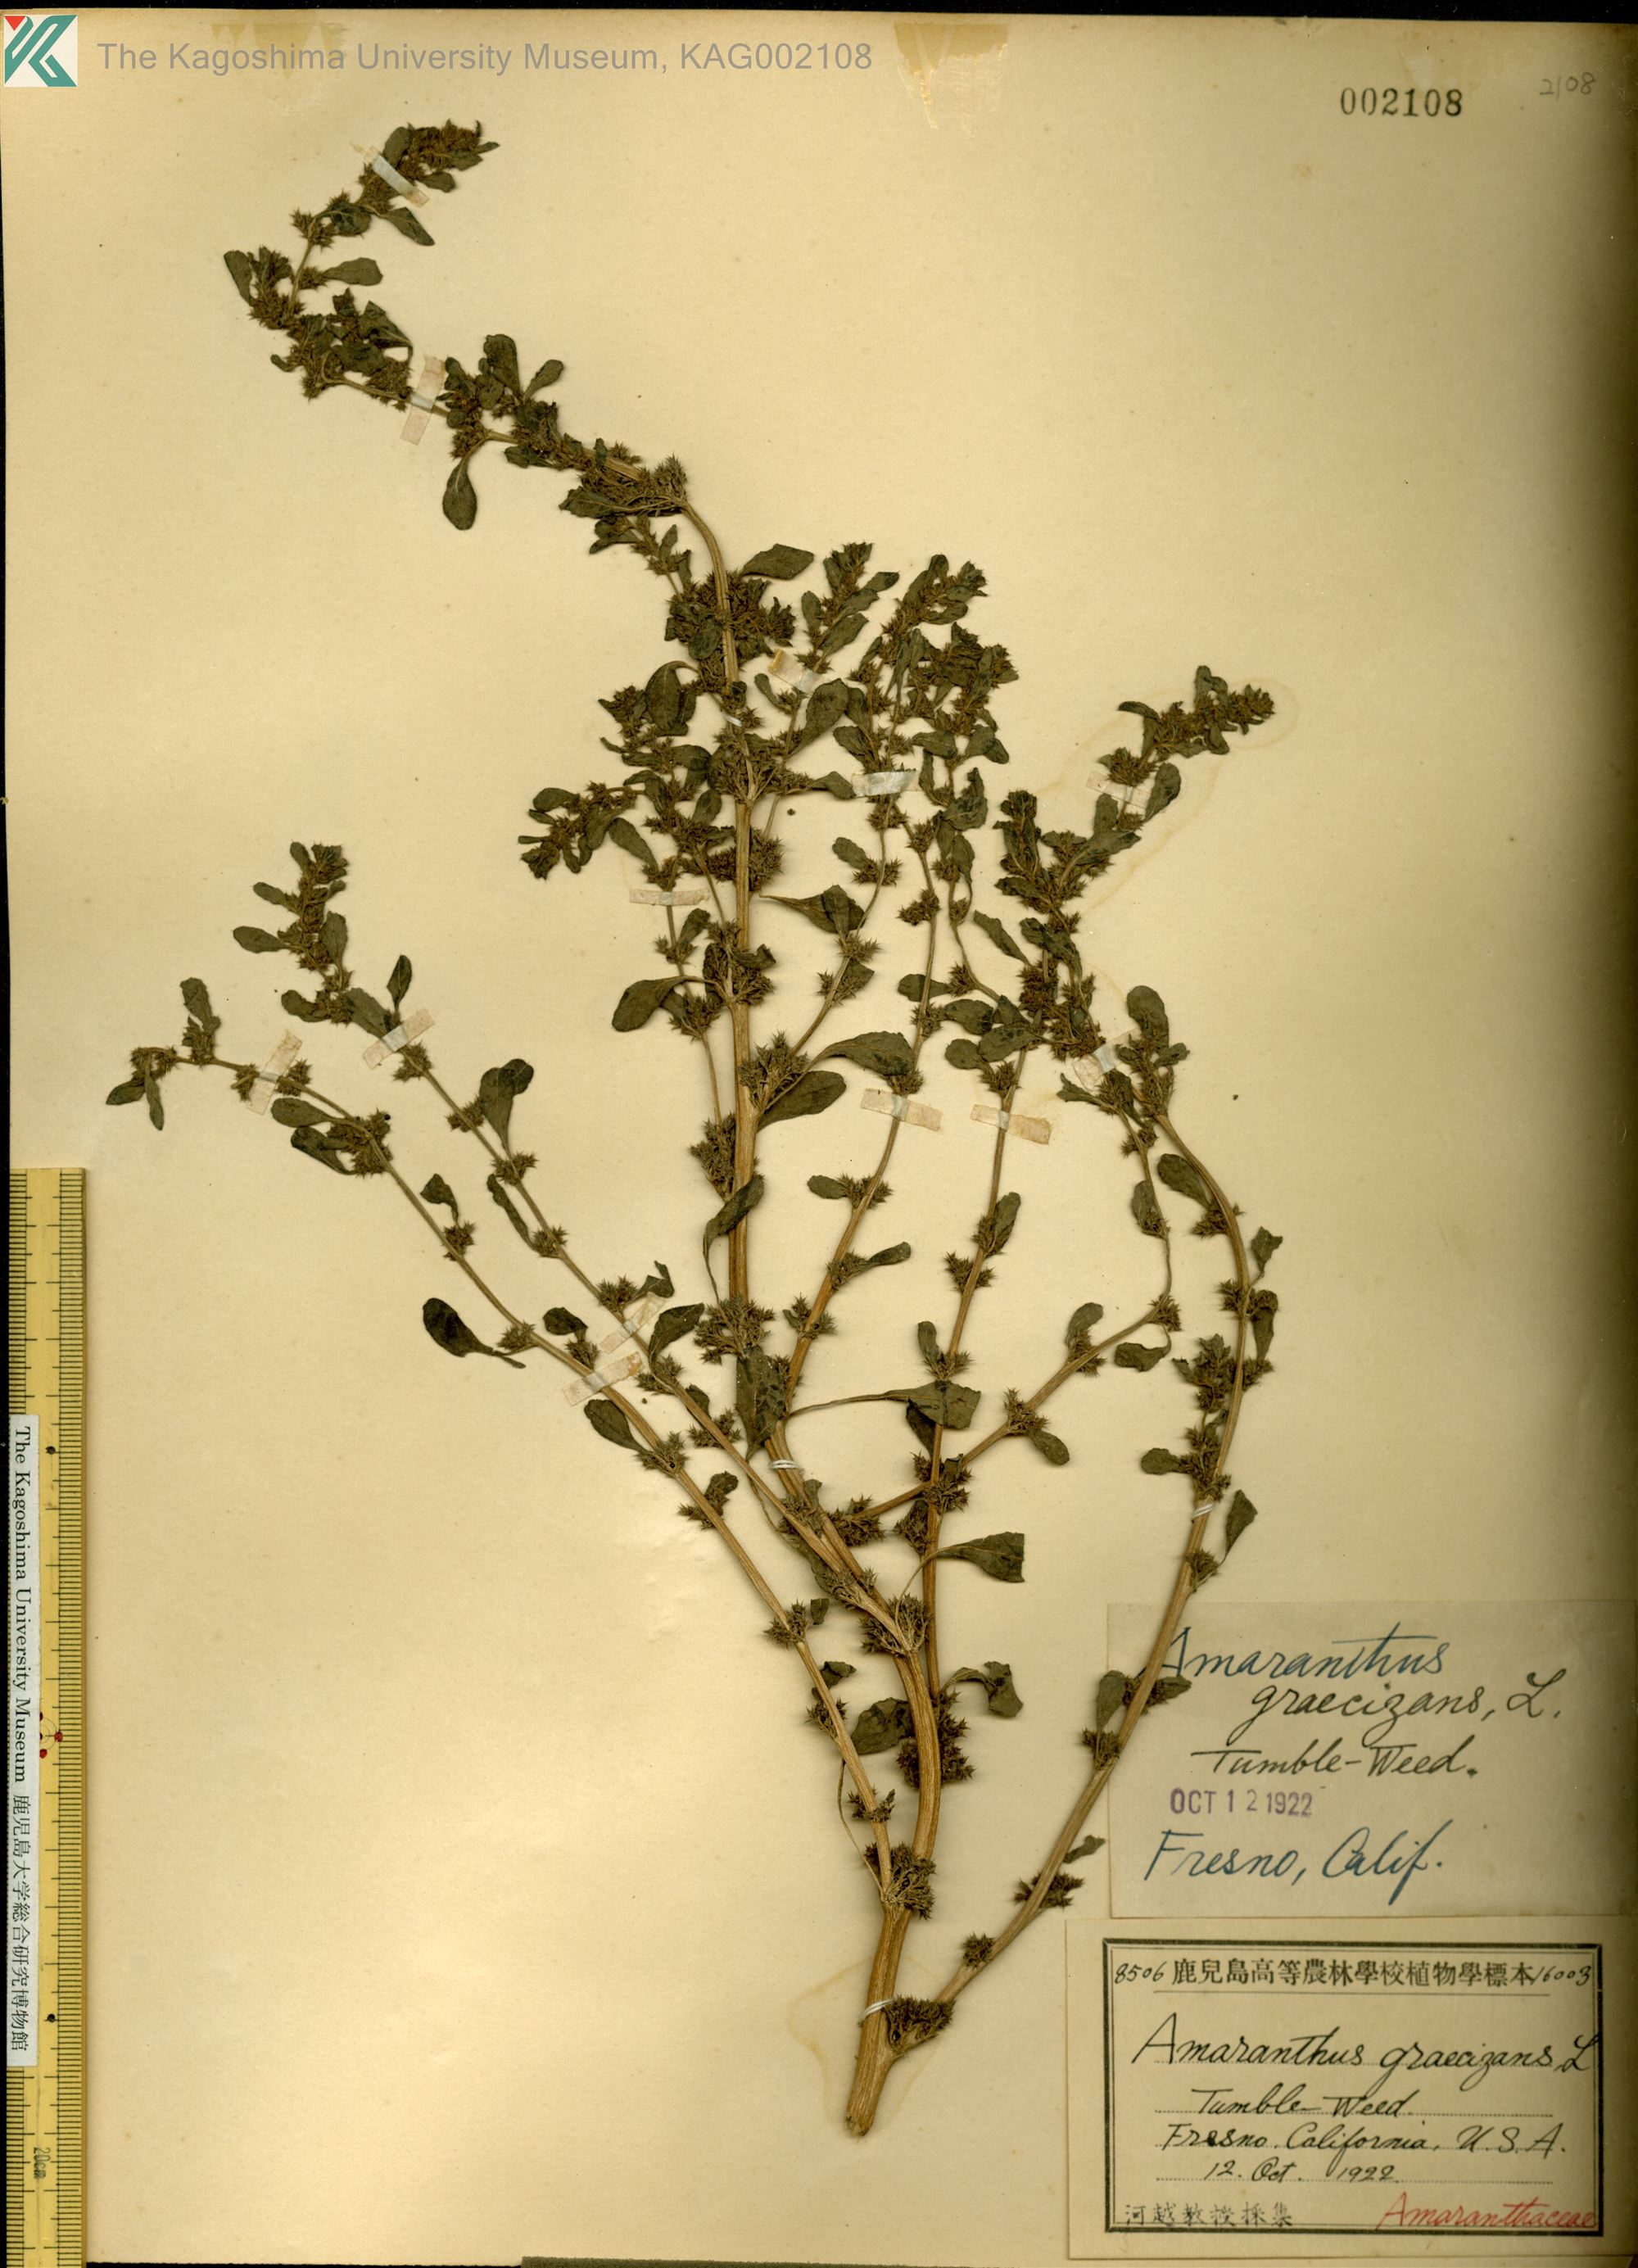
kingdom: Plantae
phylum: Tracheophyta
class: Magnoliopsida
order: Caryophyllales
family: Amaranthaceae
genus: Amaranthus
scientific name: Amaranthus graecizans
